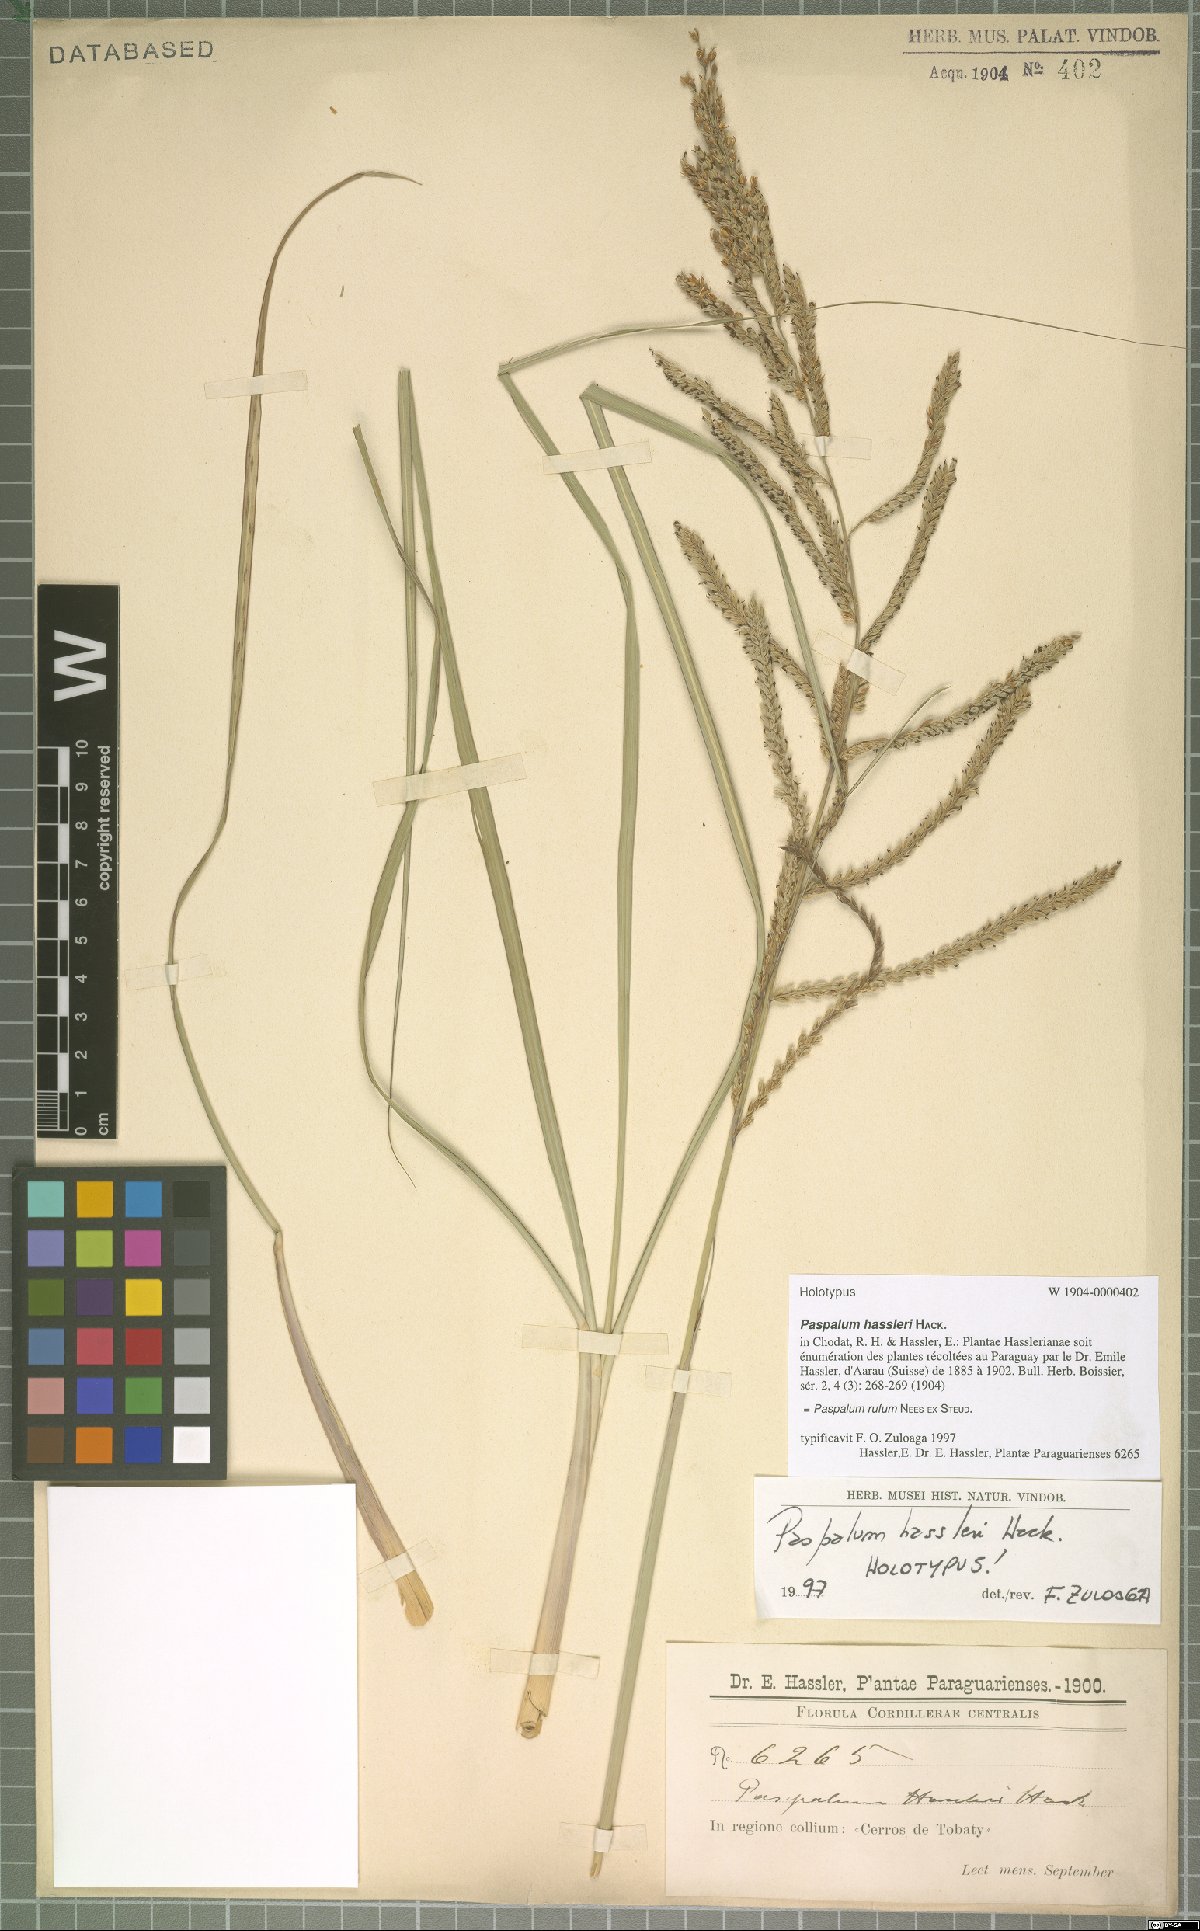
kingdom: Plantae
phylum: Tracheophyta
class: Liliopsida
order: Poales
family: Poaceae
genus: Paspalum
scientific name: Paspalum rufum
